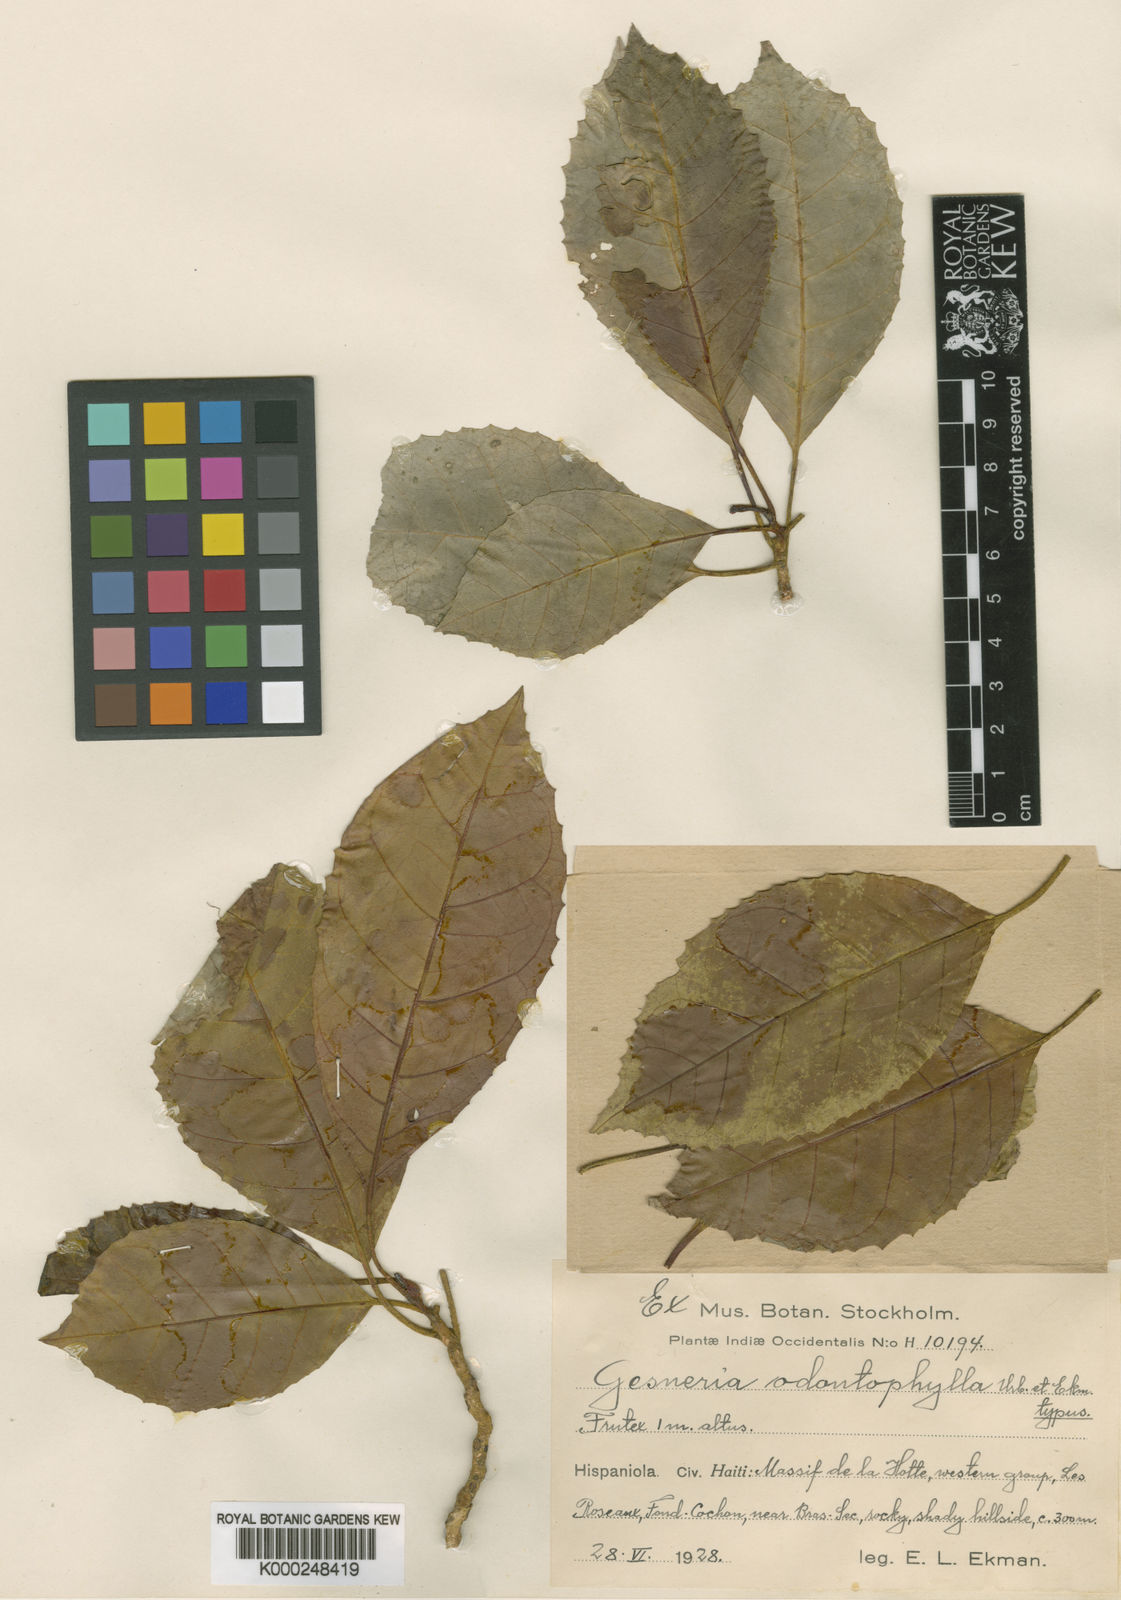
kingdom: Plantae
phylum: Tracheophyta
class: Magnoliopsida
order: Lamiales
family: Gesneriaceae
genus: Gesneria
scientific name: Gesneria odontophylla
